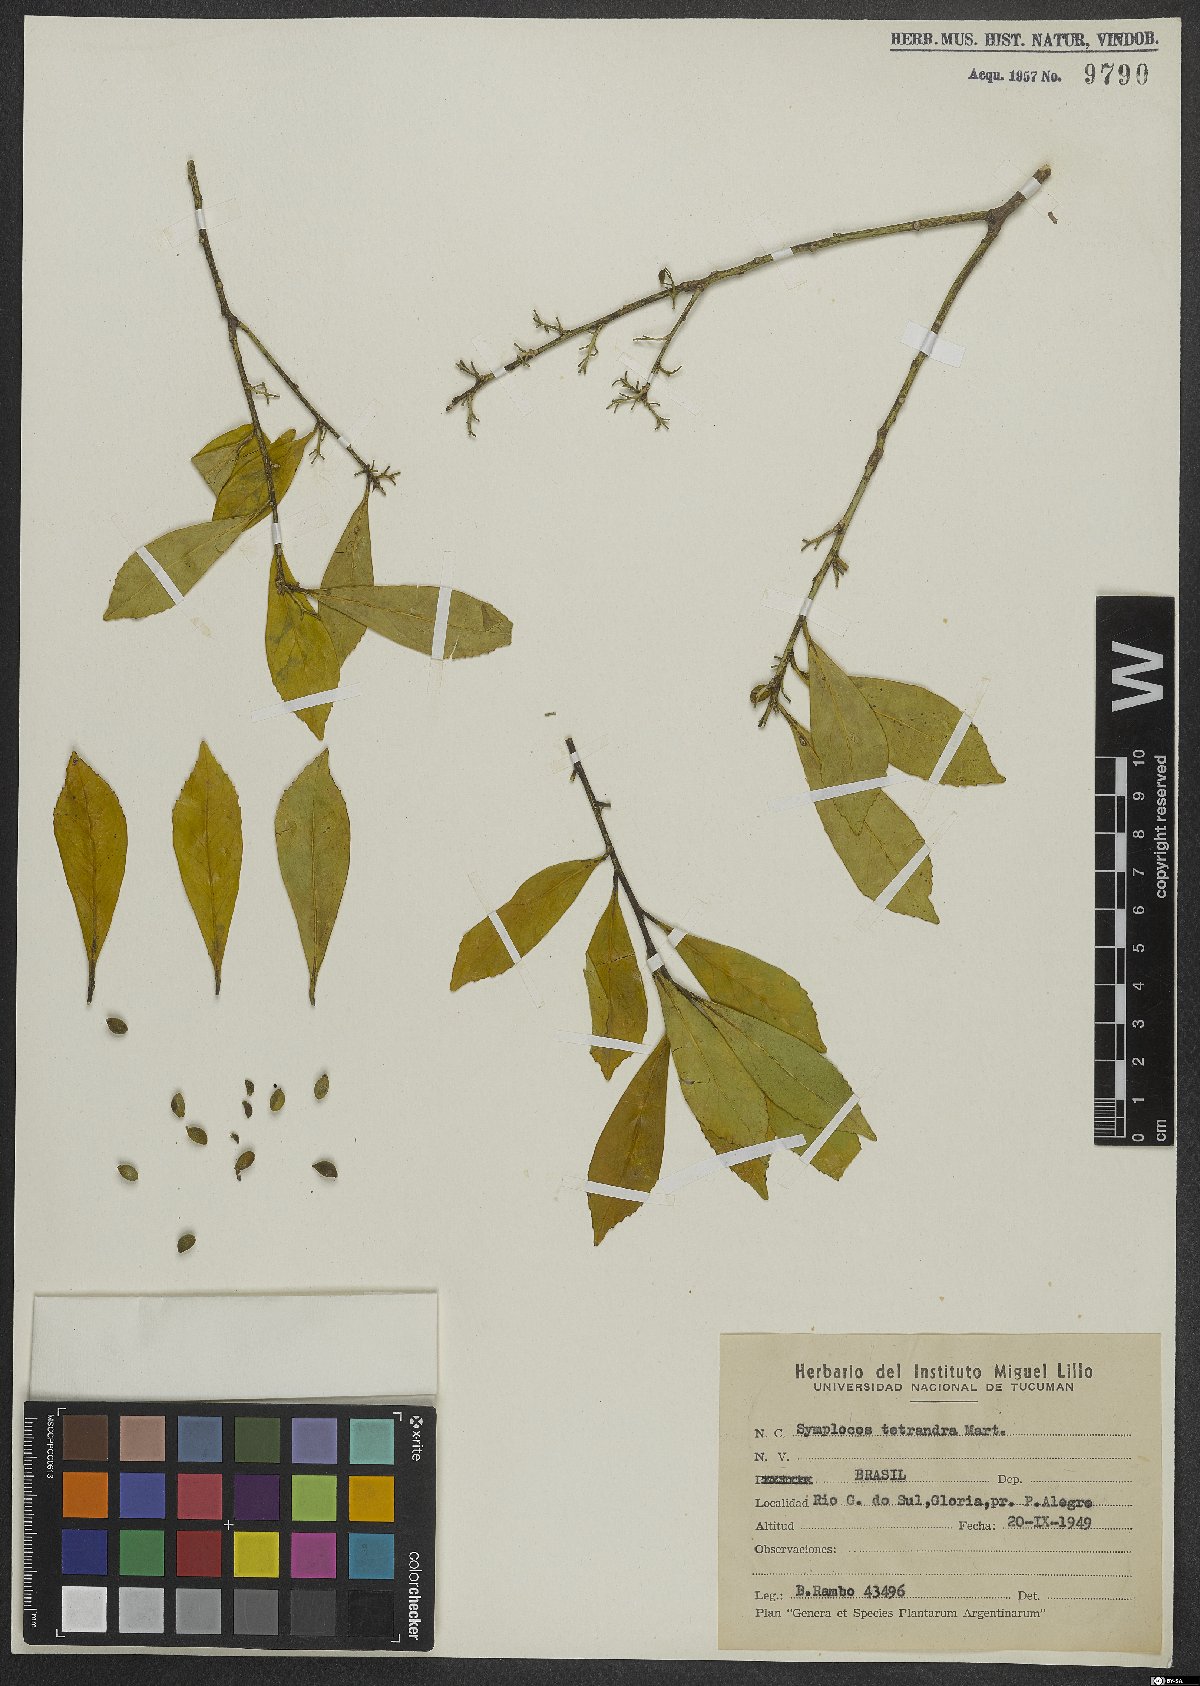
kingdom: Plantae
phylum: Tracheophyta
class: Magnoliopsida
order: Ericales
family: Symplocaceae
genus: Symplocos
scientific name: Symplocos tetrandra
